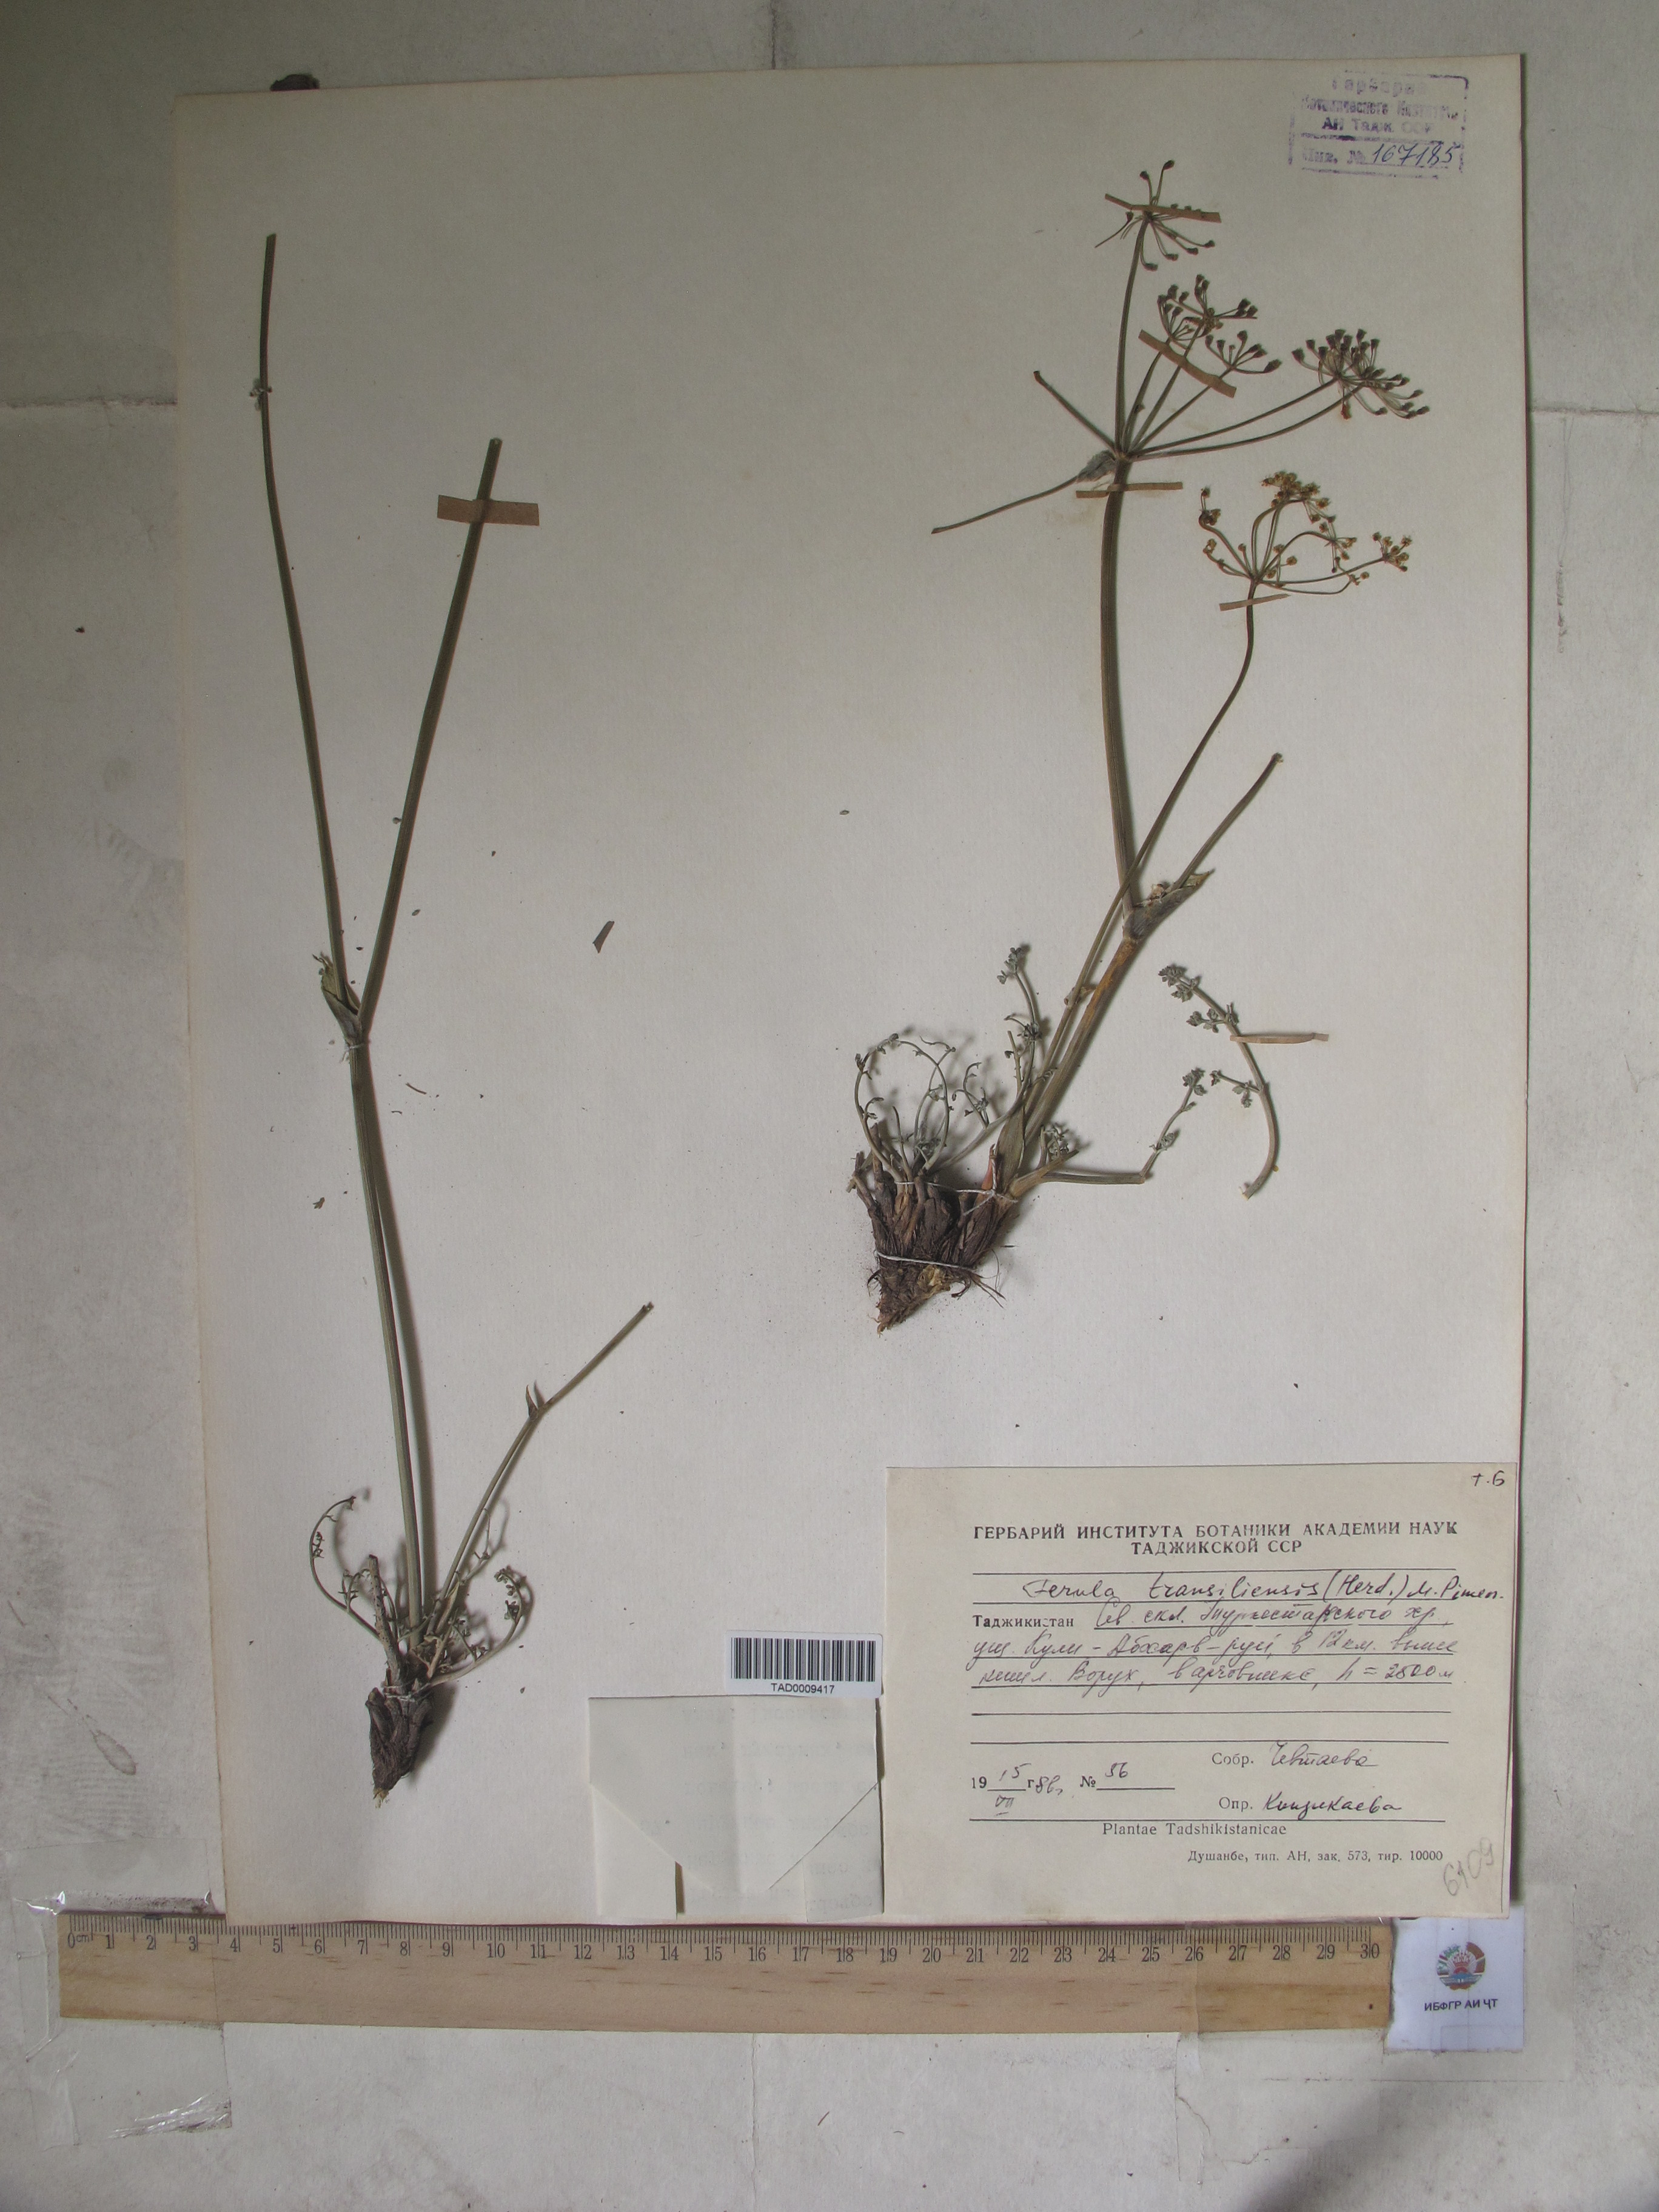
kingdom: Plantae
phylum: Tracheophyta
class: Magnoliopsida
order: Apiales
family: Apiaceae
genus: Ferula
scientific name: Ferula transiliensis
